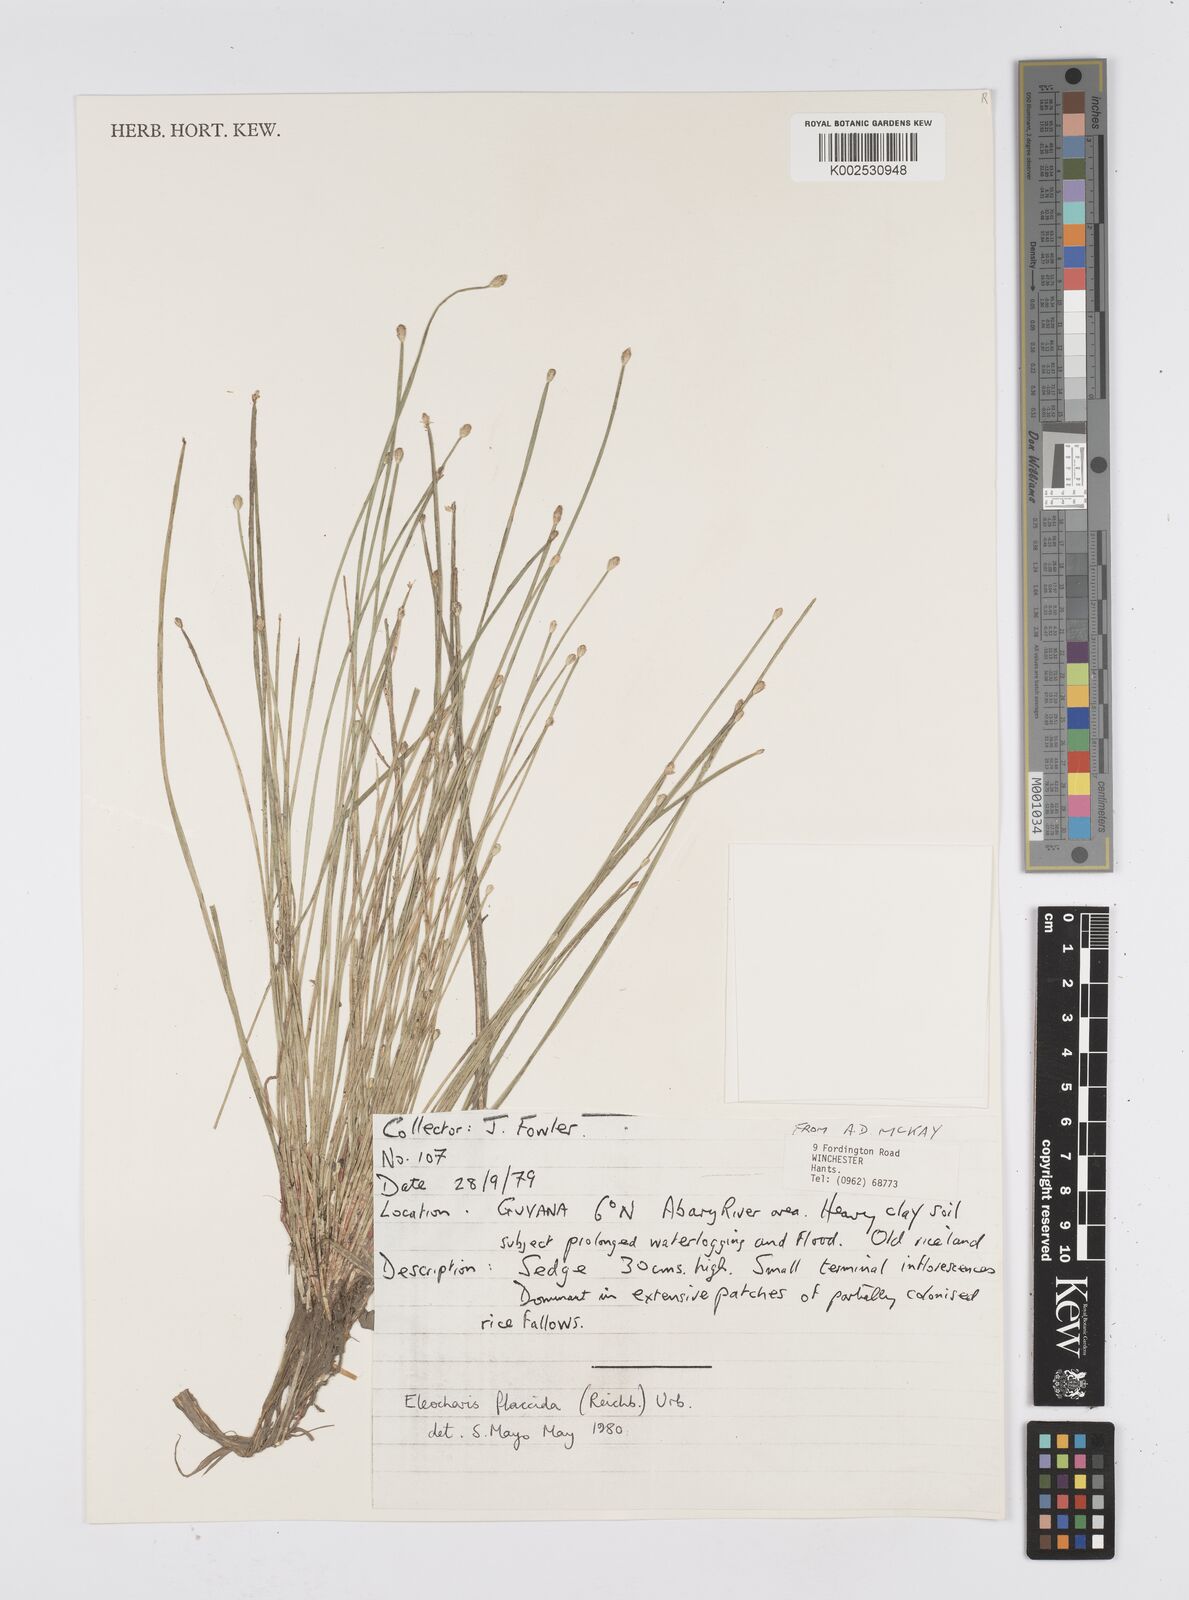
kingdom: Plantae
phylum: Tracheophyta
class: Liliopsida
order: Poales
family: Cyperaceae
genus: Eleocharis
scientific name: Eleocharis flavescens
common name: Yellow spikerush
